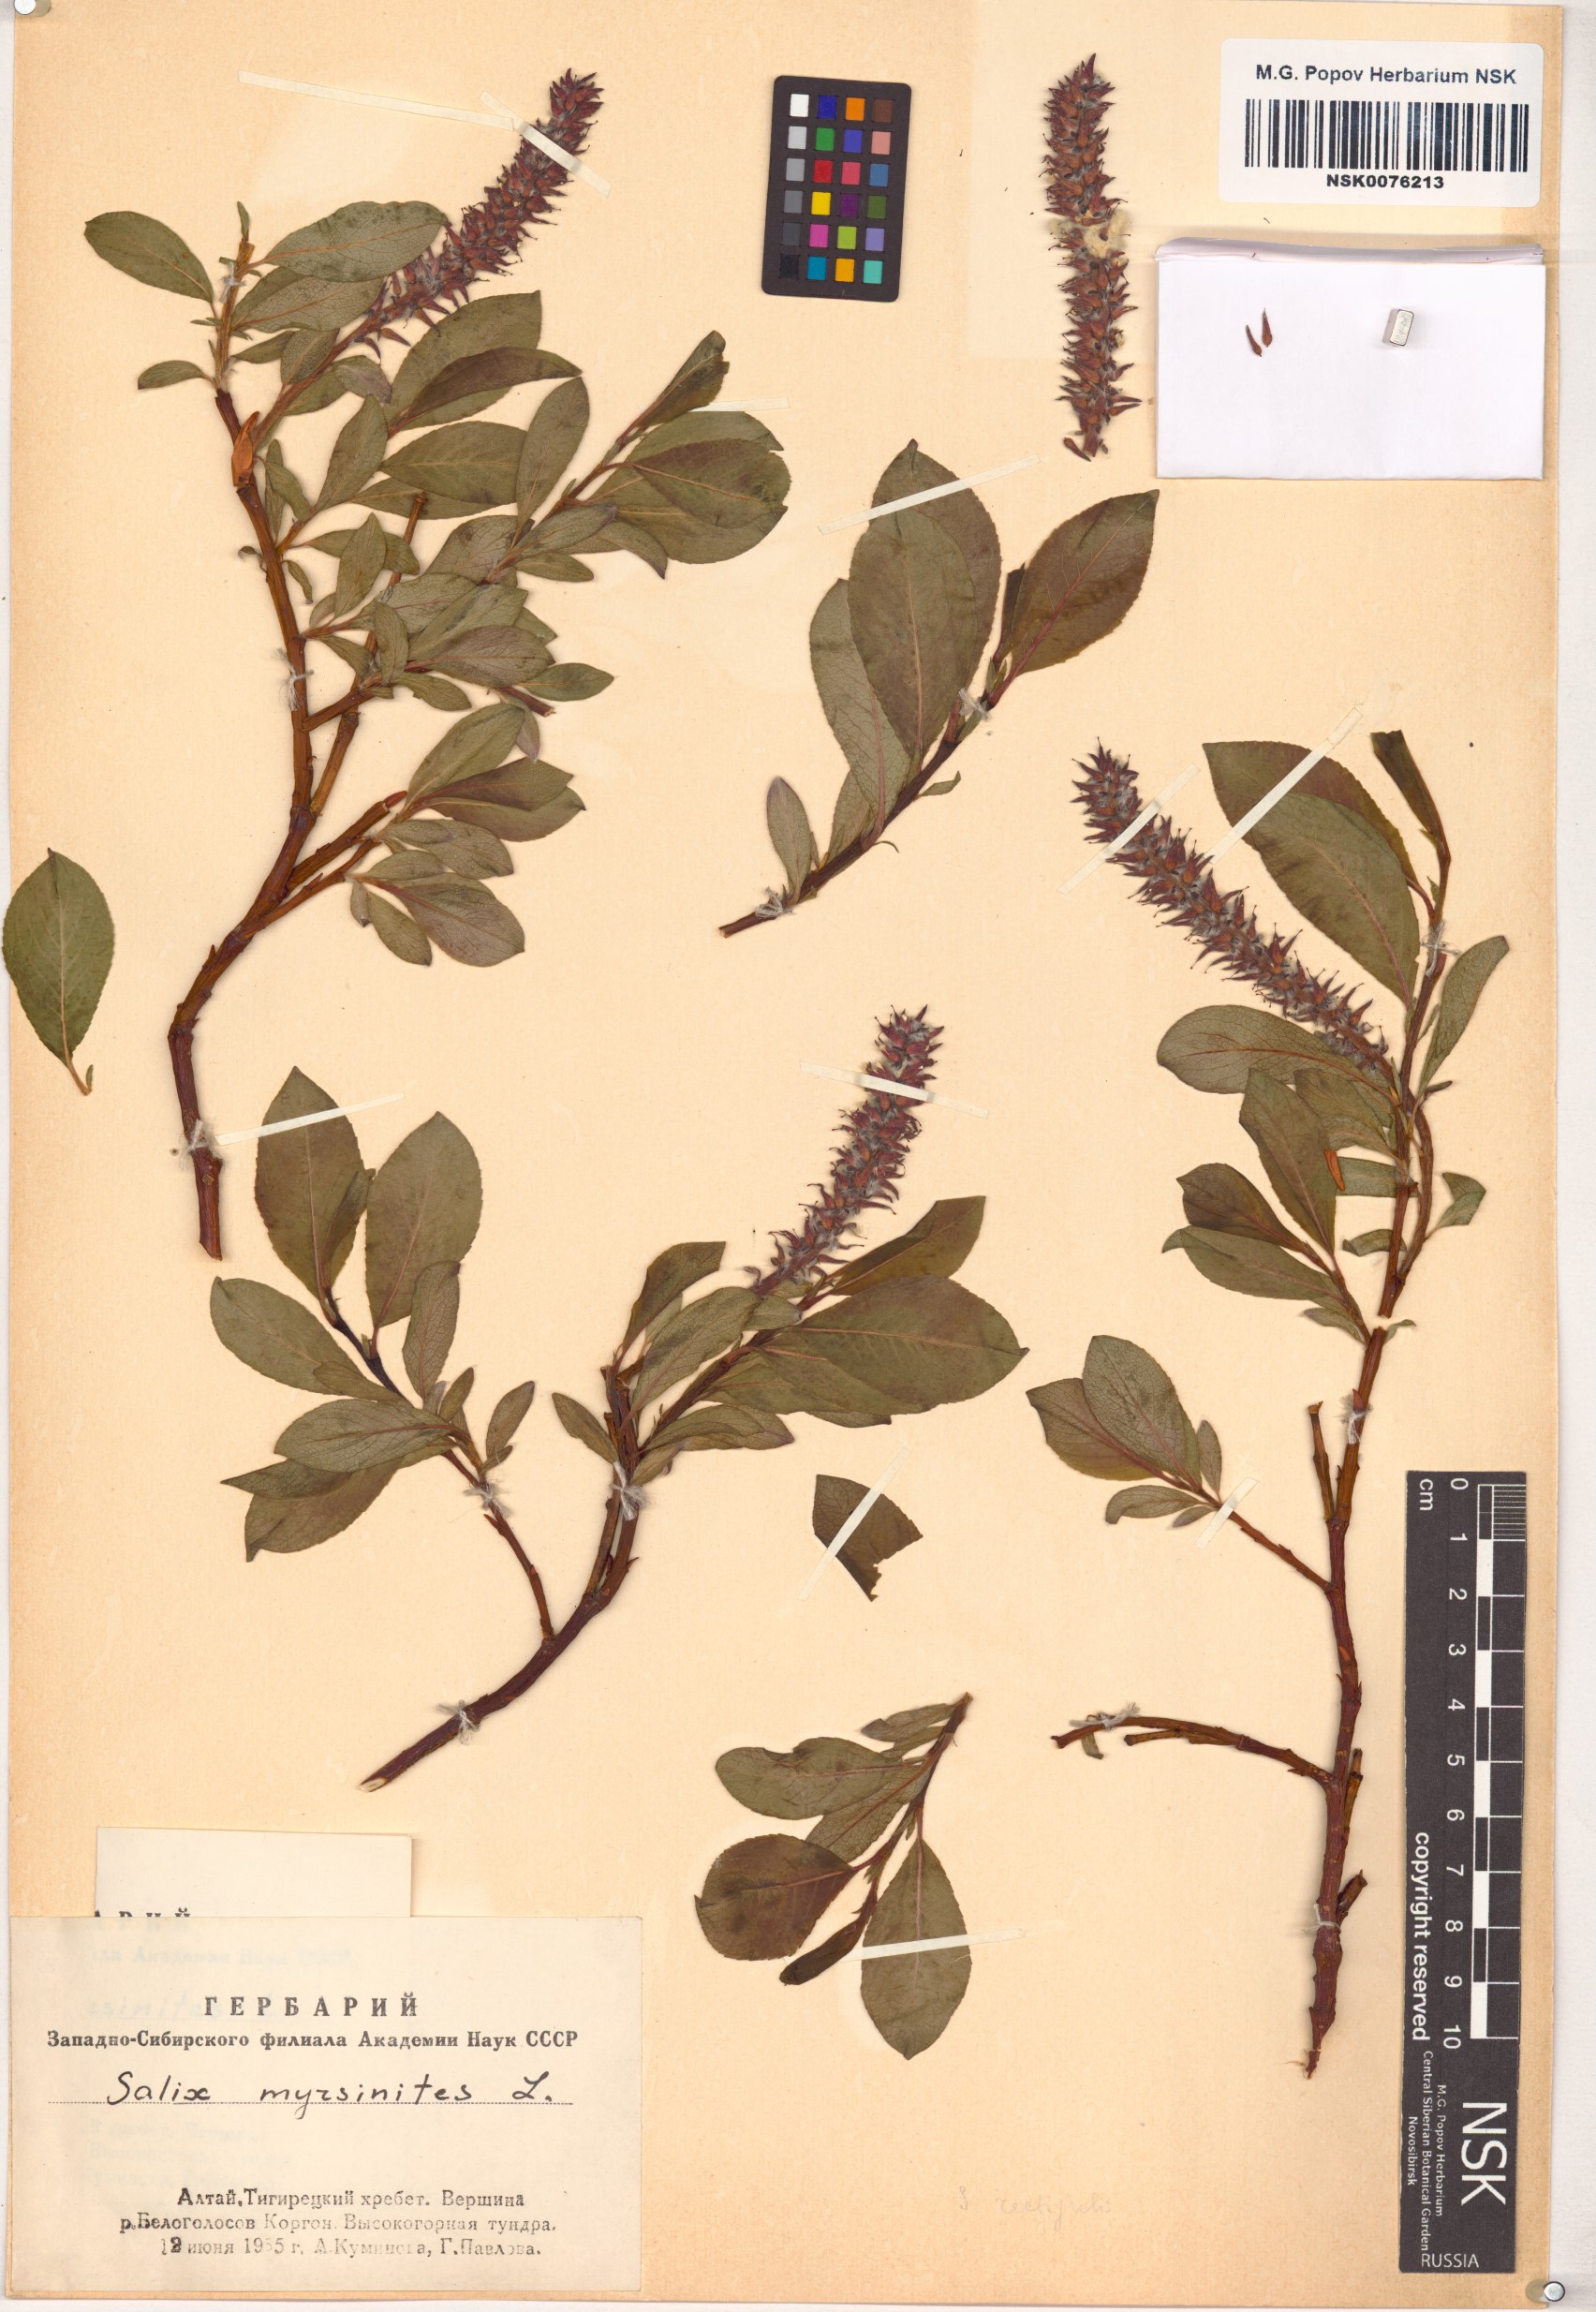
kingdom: Plantae
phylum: Tracheophyta
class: Magnoliopsida
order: Malpighiales
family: Salicaceae
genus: Salix
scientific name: Salix myrsinites
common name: Myrtle willow
